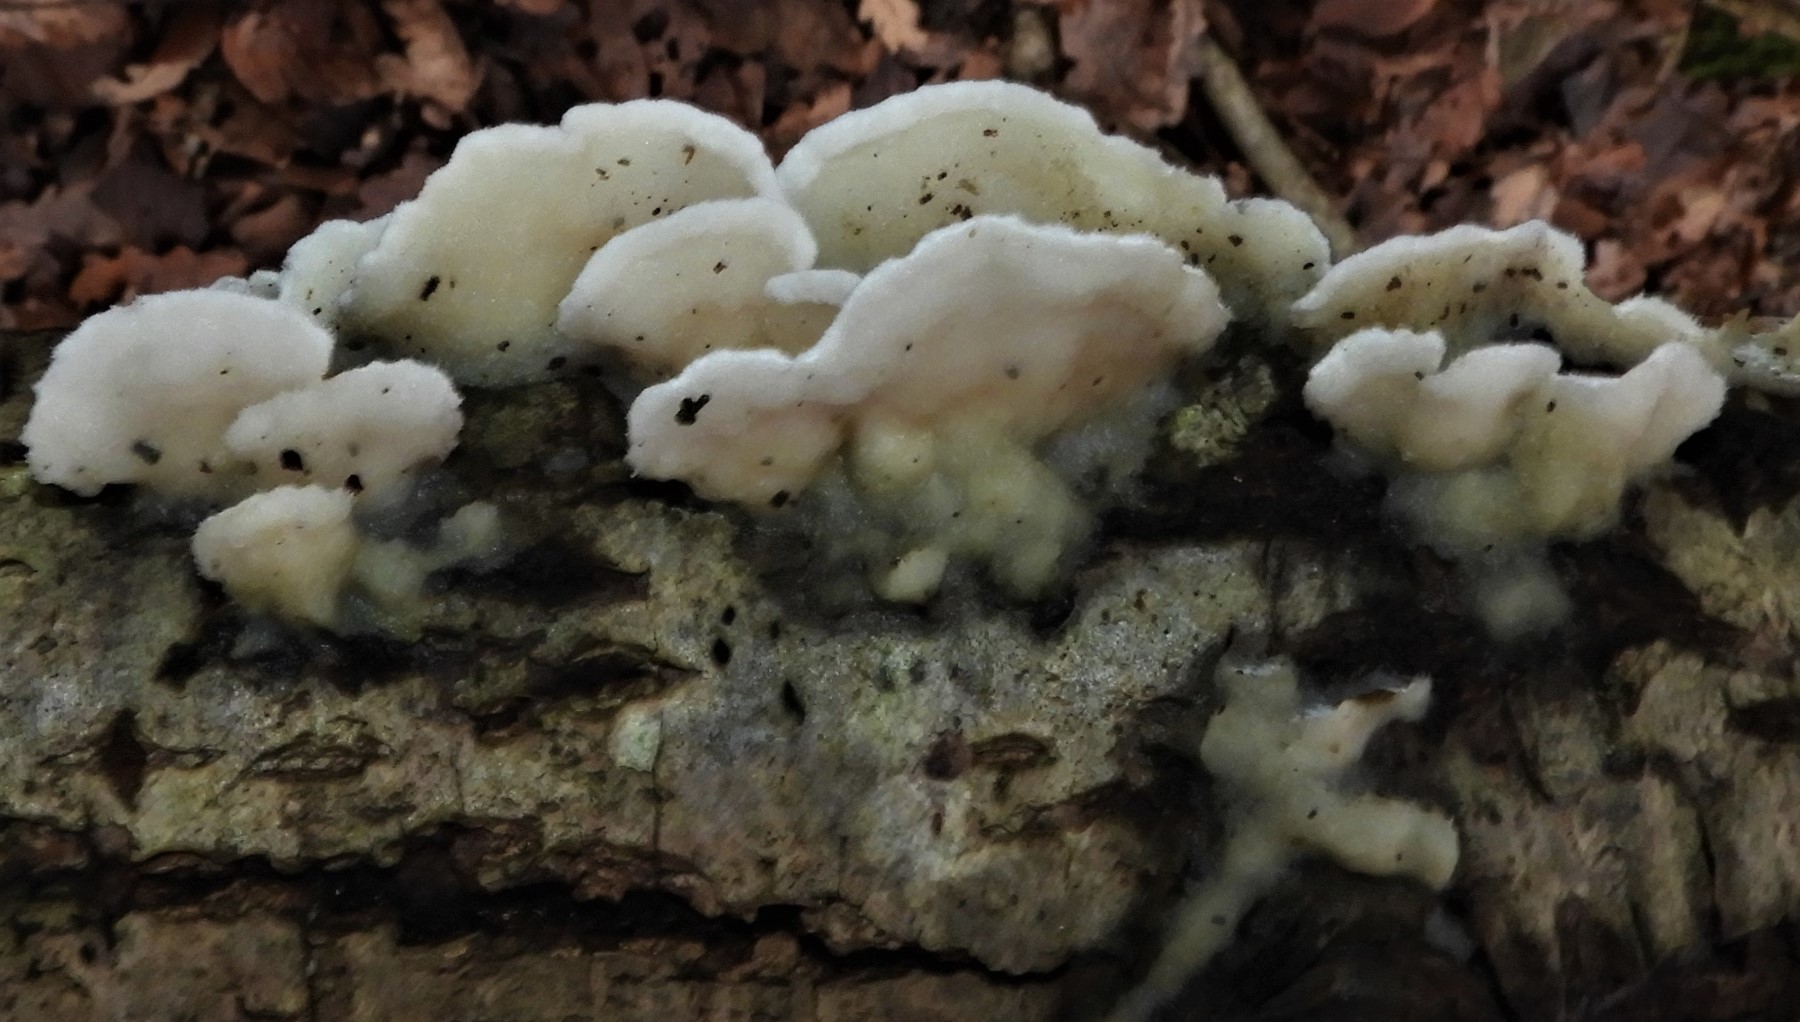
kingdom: Fungi
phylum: Basidiomycota
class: Agaricomycetes
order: Polyporales
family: Irpicaceae
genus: Vitreoporus
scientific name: Vitreoporus dichrous
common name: tofarvet foldporesvamp
